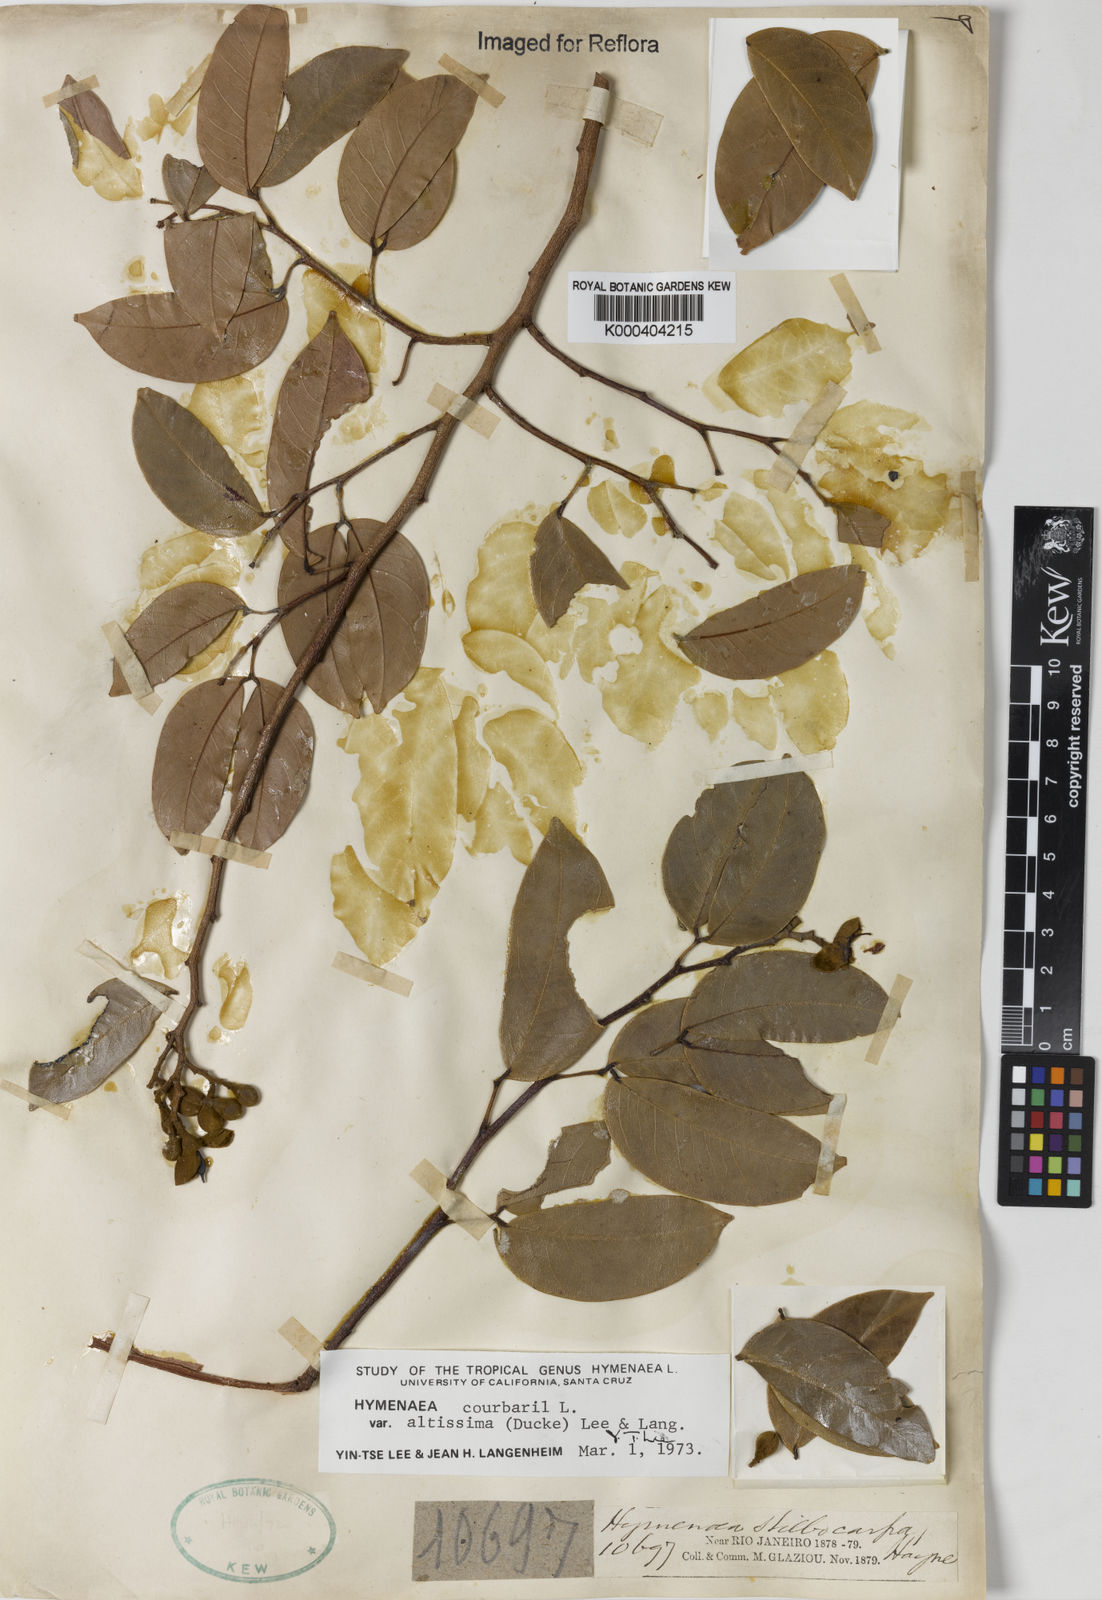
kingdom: Plantae
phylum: Tracheophyta
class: Magnoliopsida
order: Fabales
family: Fabaceae
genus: Hymenaea
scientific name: Hymenaea altissima
